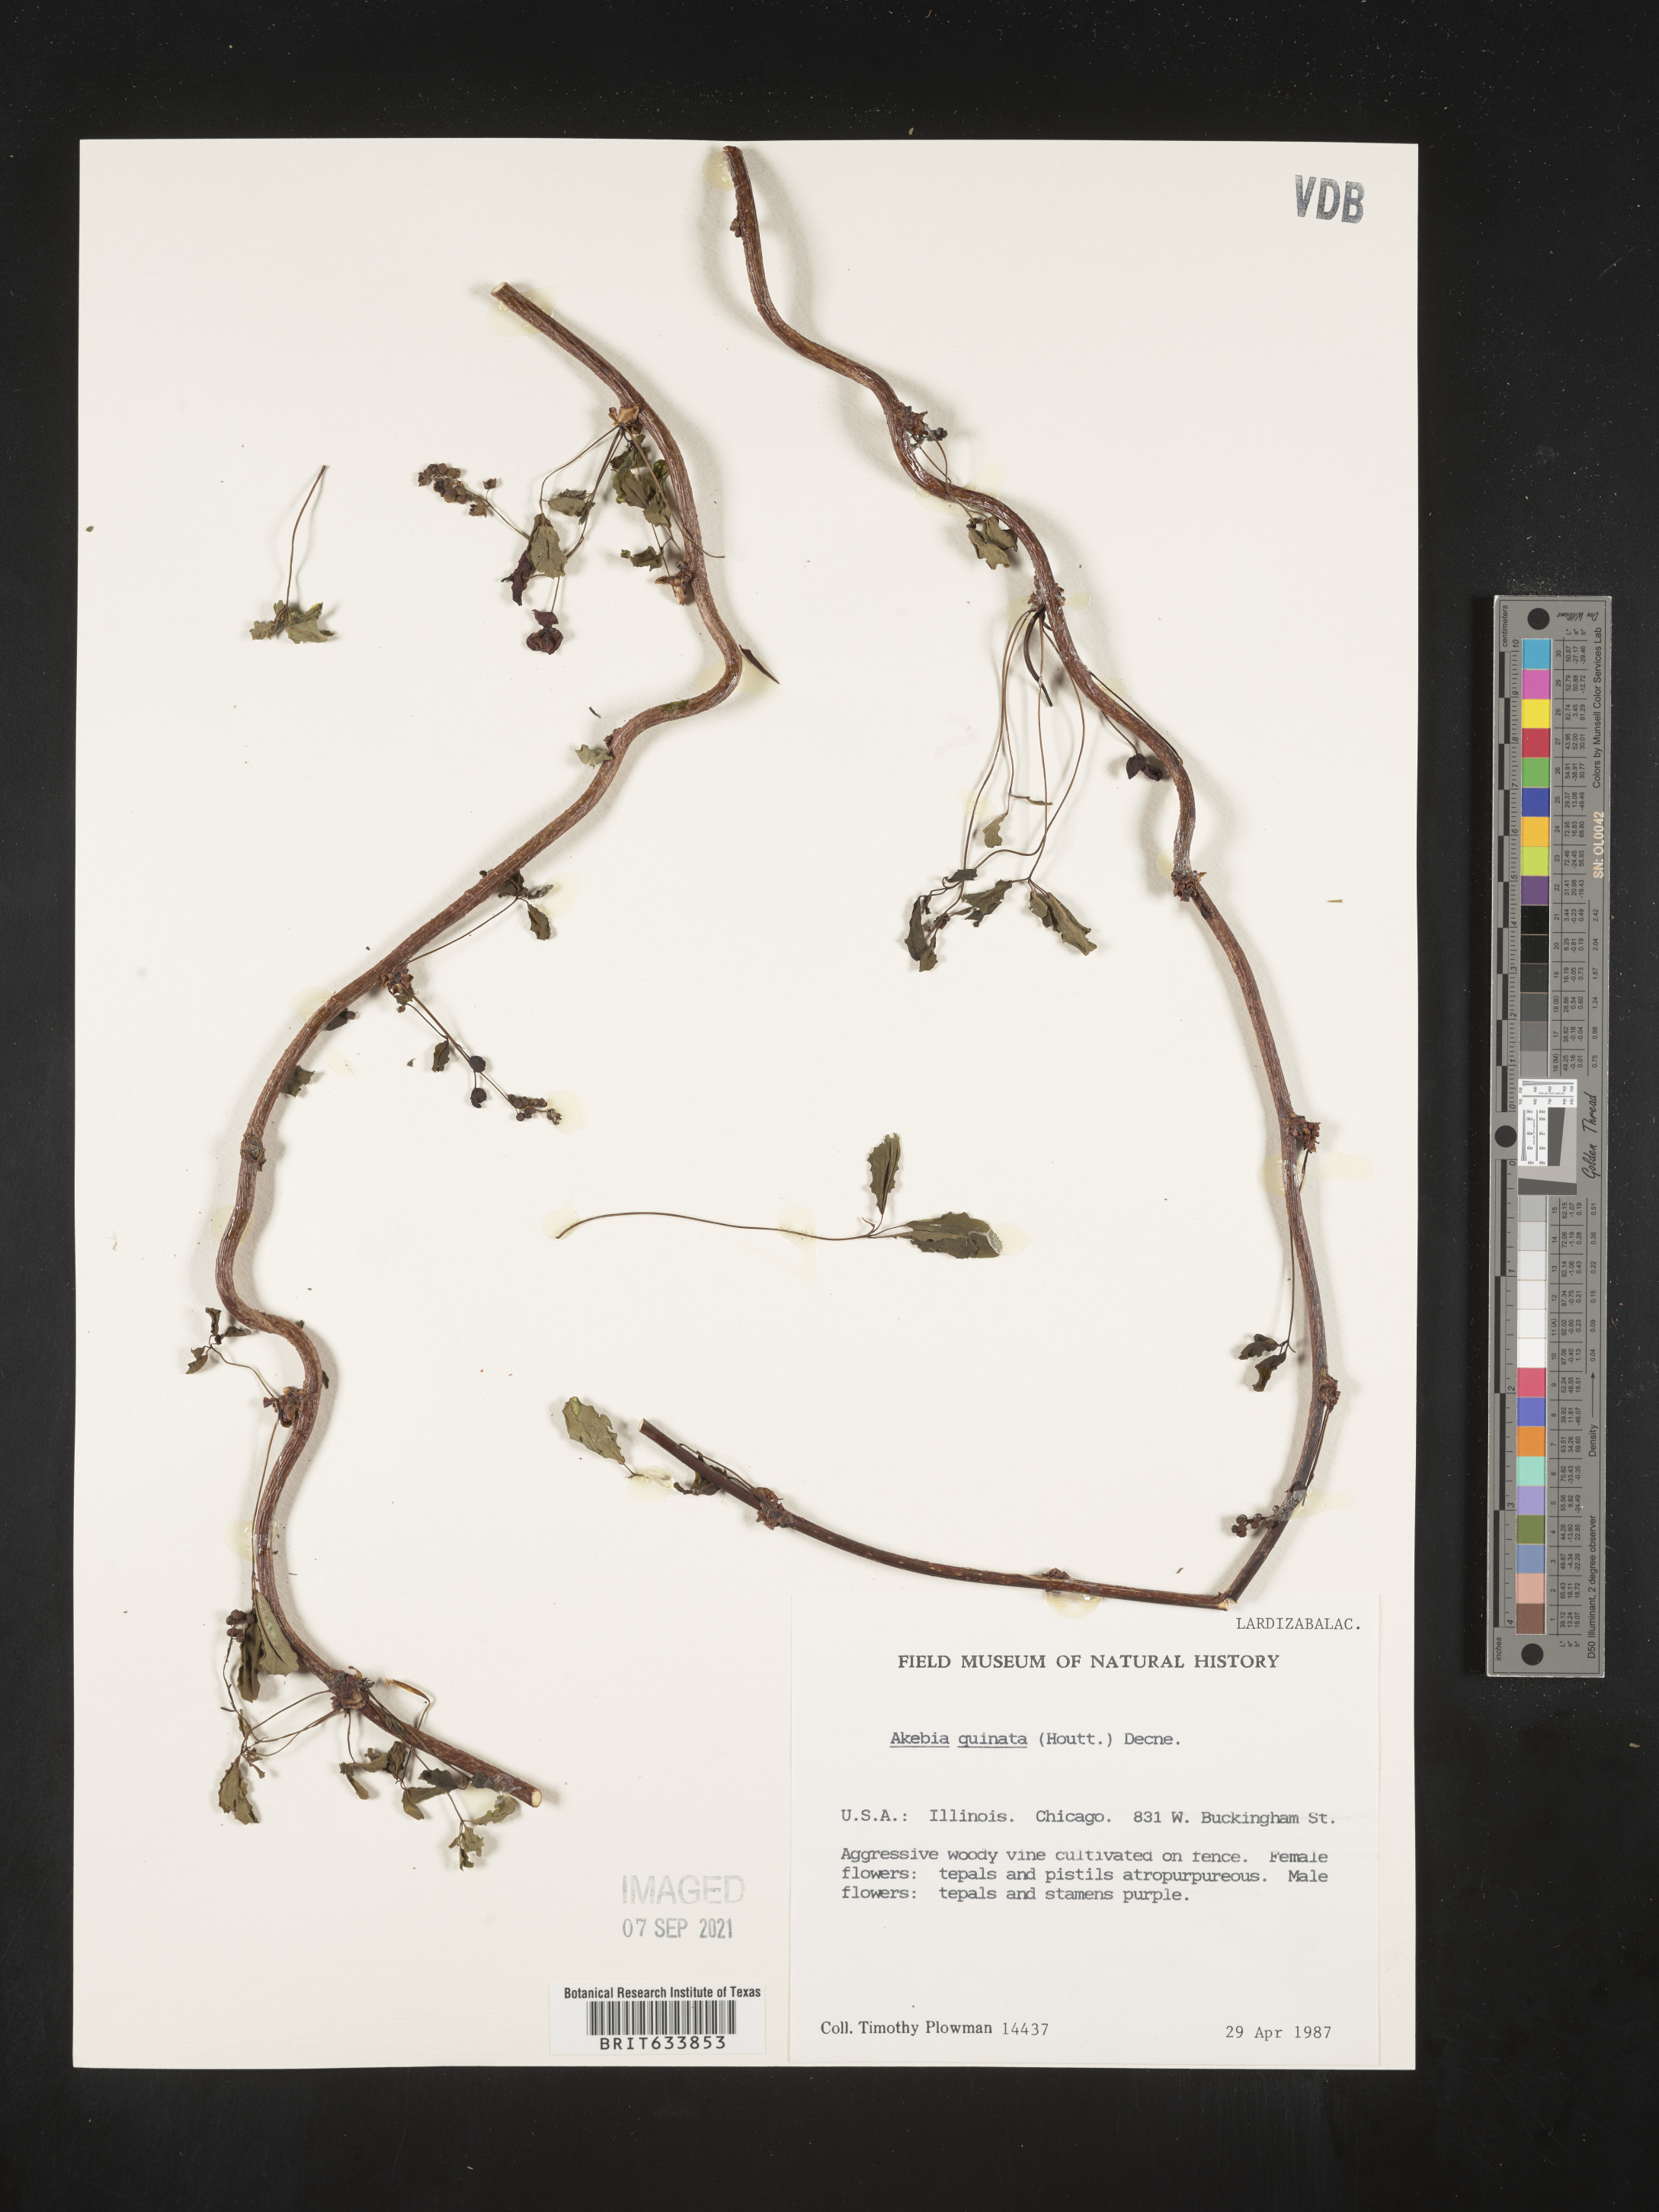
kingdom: Plantae
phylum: Tracheophyta
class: Magnoliopsida
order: Ranunculales
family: Lardizabalaceae
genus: Akebia
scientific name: Akebia
